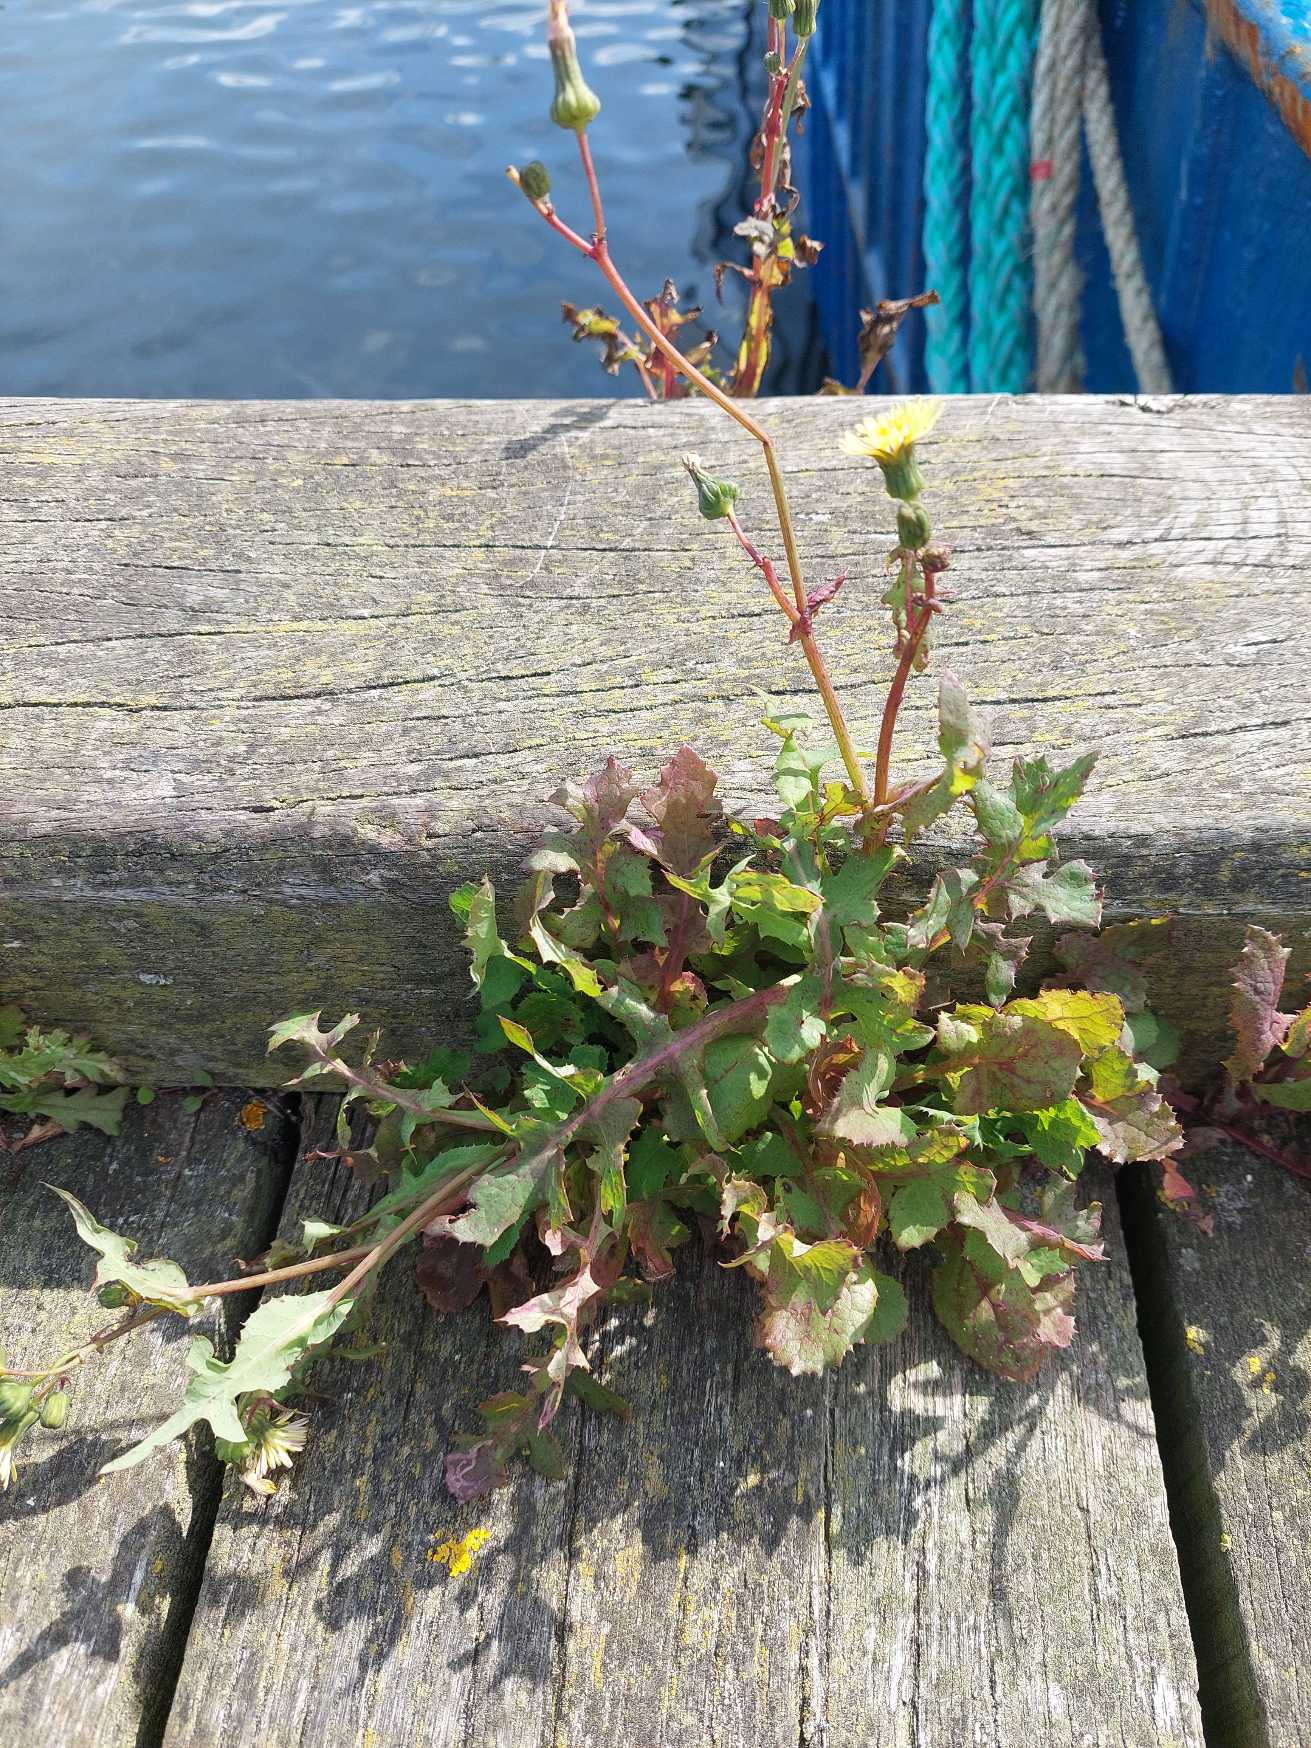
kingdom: Plantae
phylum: Tracheophyta
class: Magnoliopsida
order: Asterales
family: Asteraceae
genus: Sonchus
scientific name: Sonchus oleraceus
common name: Almindelig svinemælk
